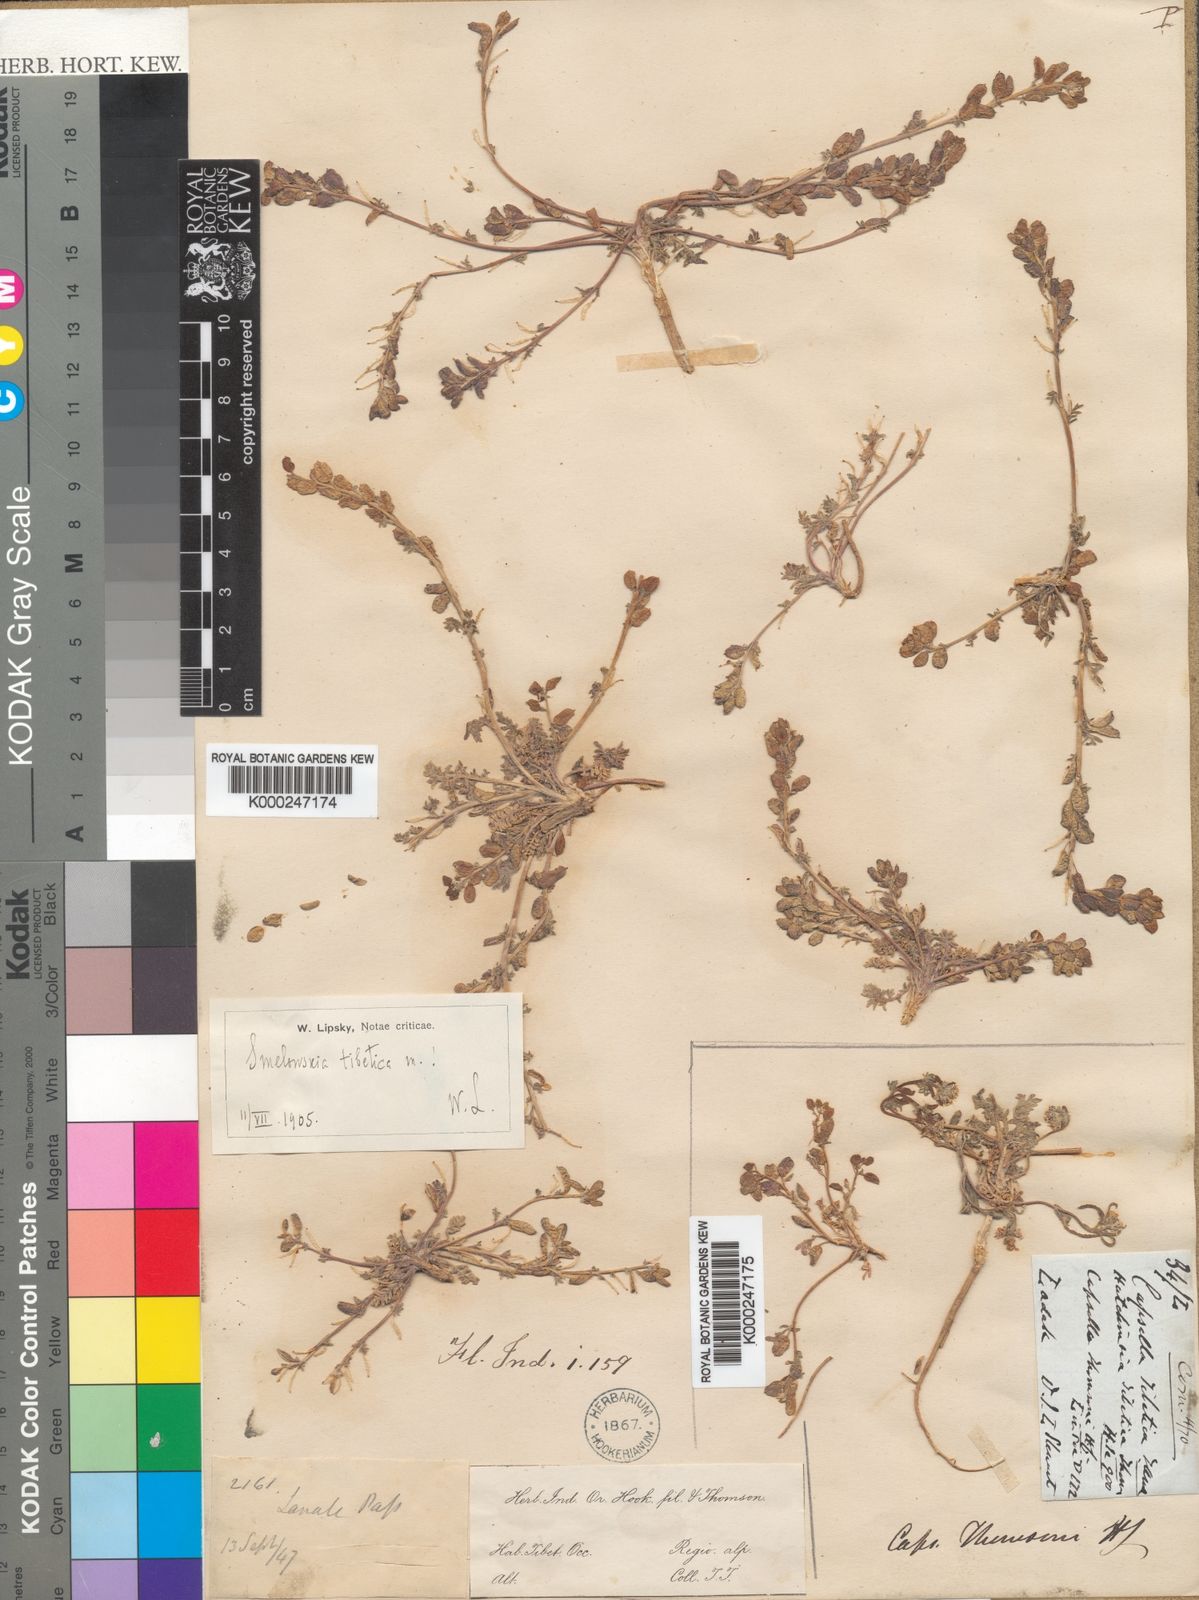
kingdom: Plantae
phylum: Tracheophyta
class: Magnoliopsida
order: Brassicales
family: Brassicaceae
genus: Smelowskia
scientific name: Smelowskia tibetica
